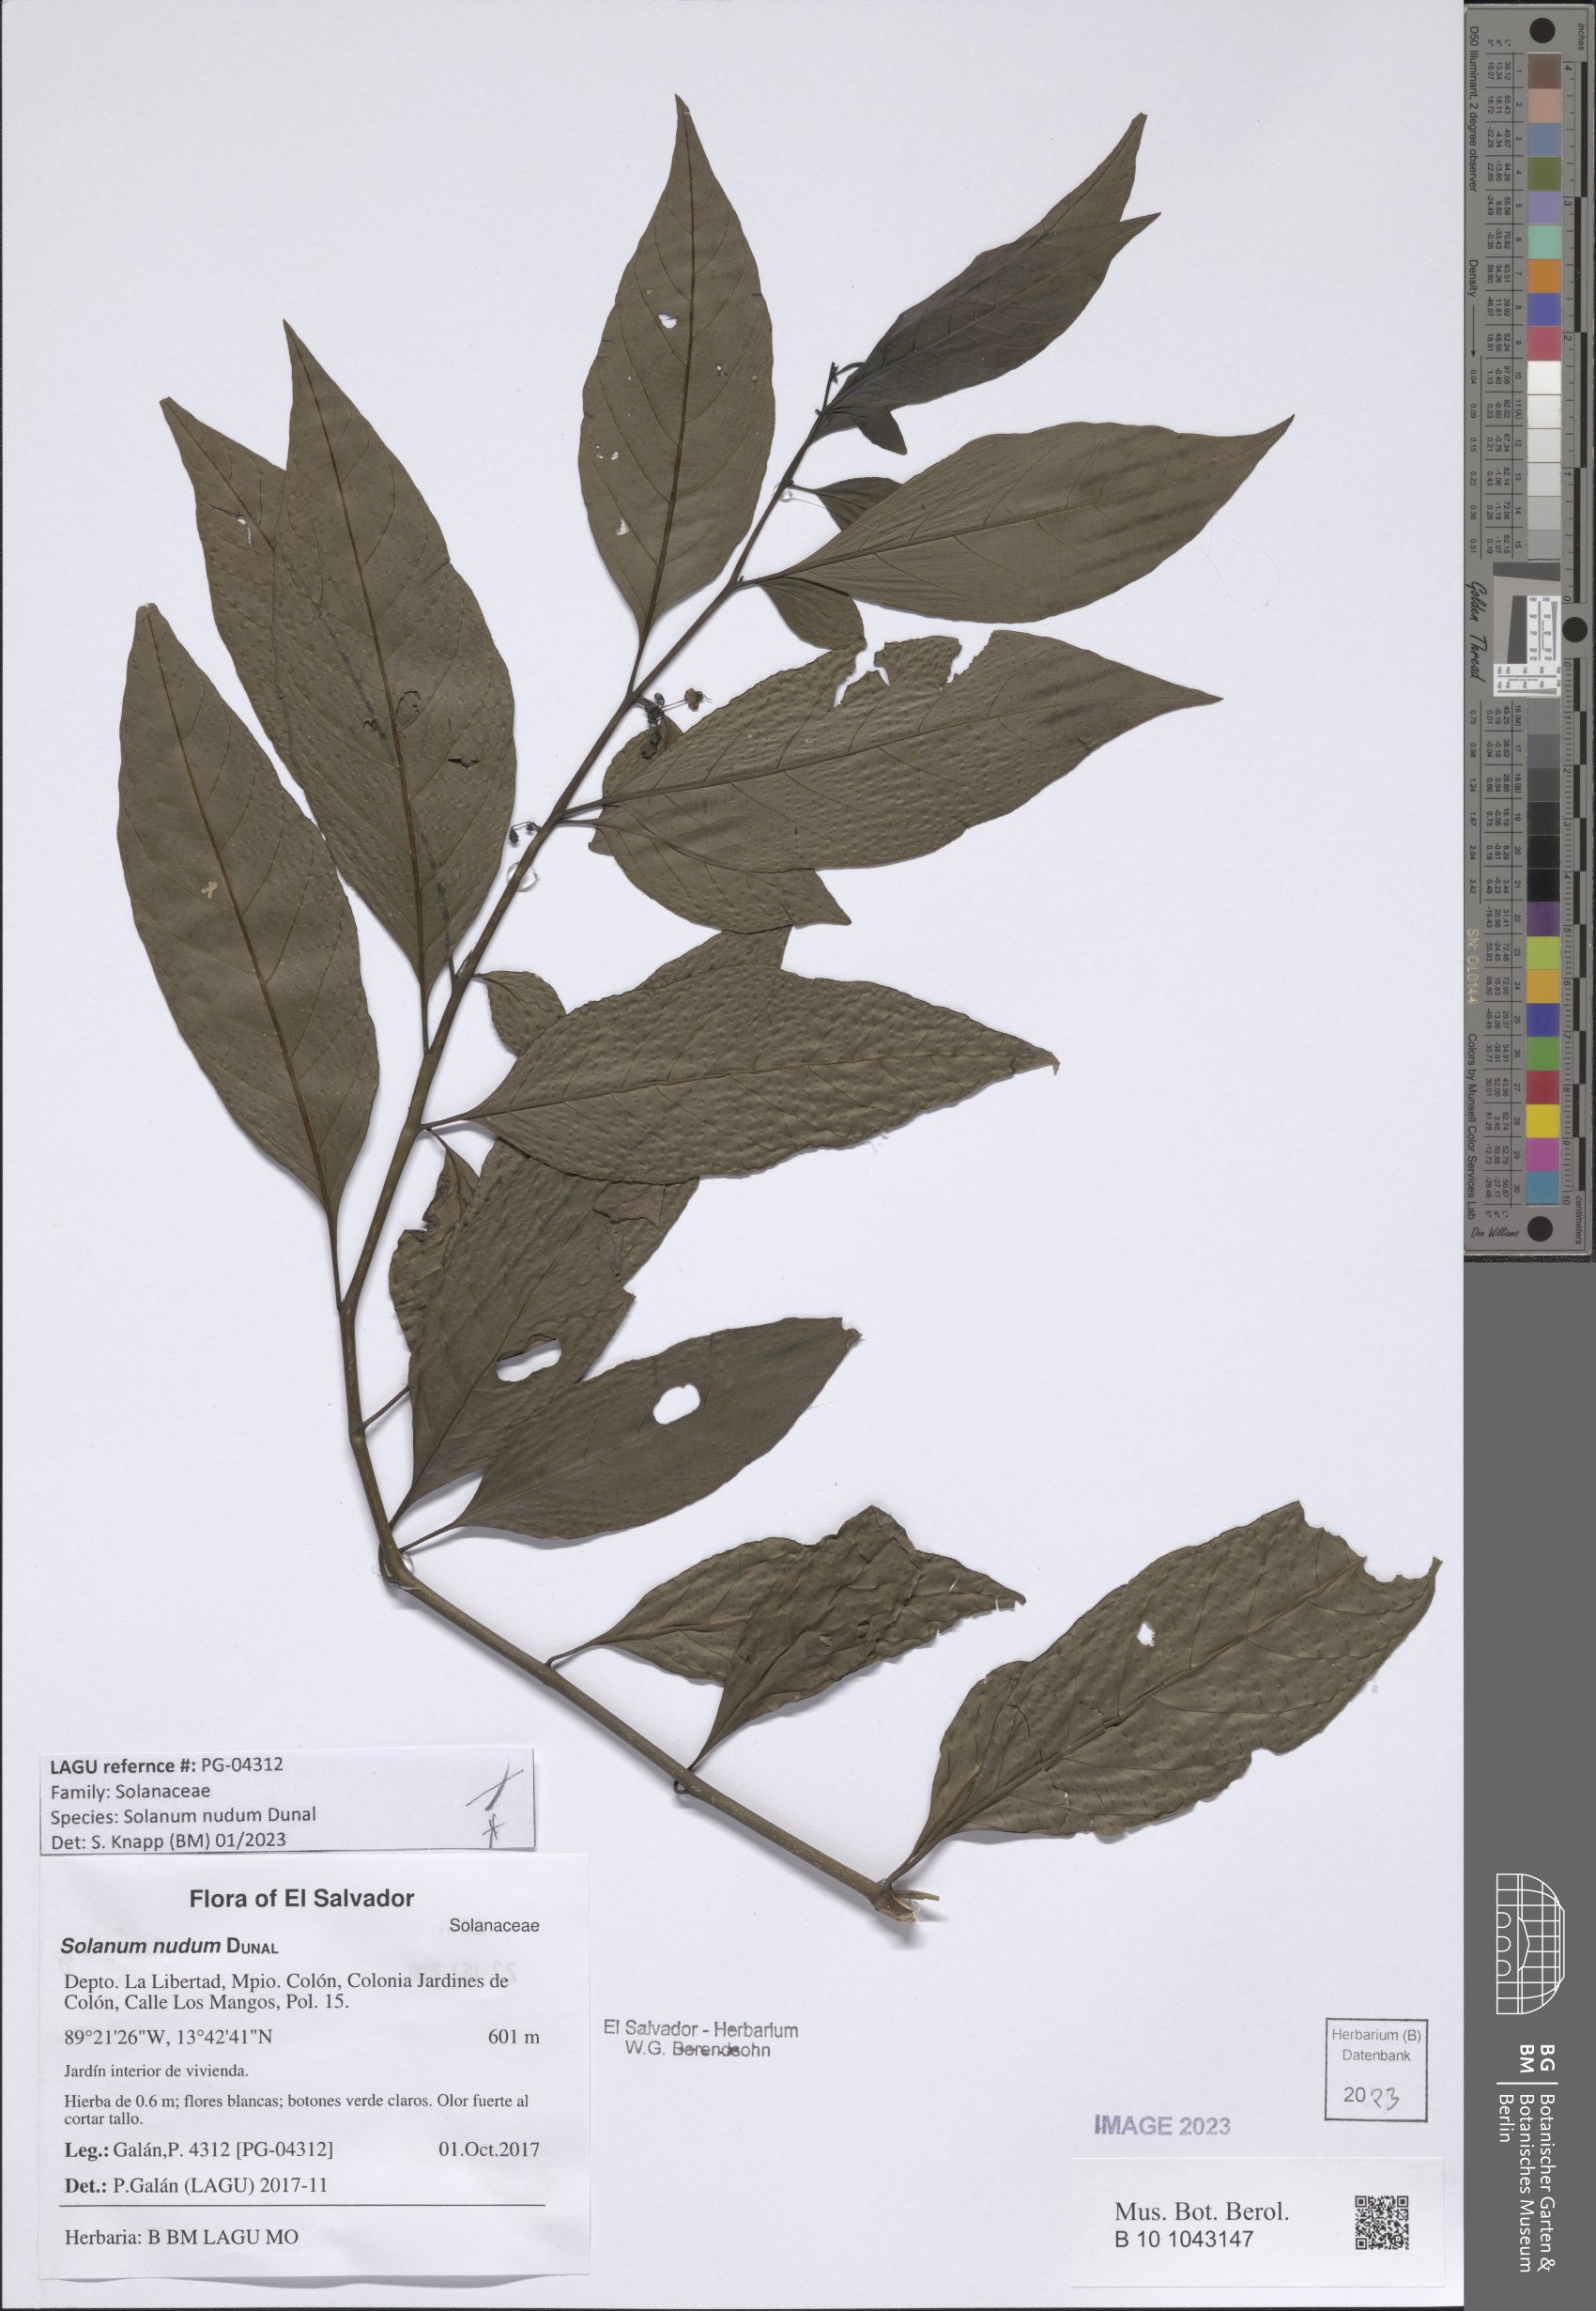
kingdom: Plantae
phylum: Tracheophyta
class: Magnoliopsida
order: Solanales
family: Solanaceae
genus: Solanum
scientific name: Solanum nudum
